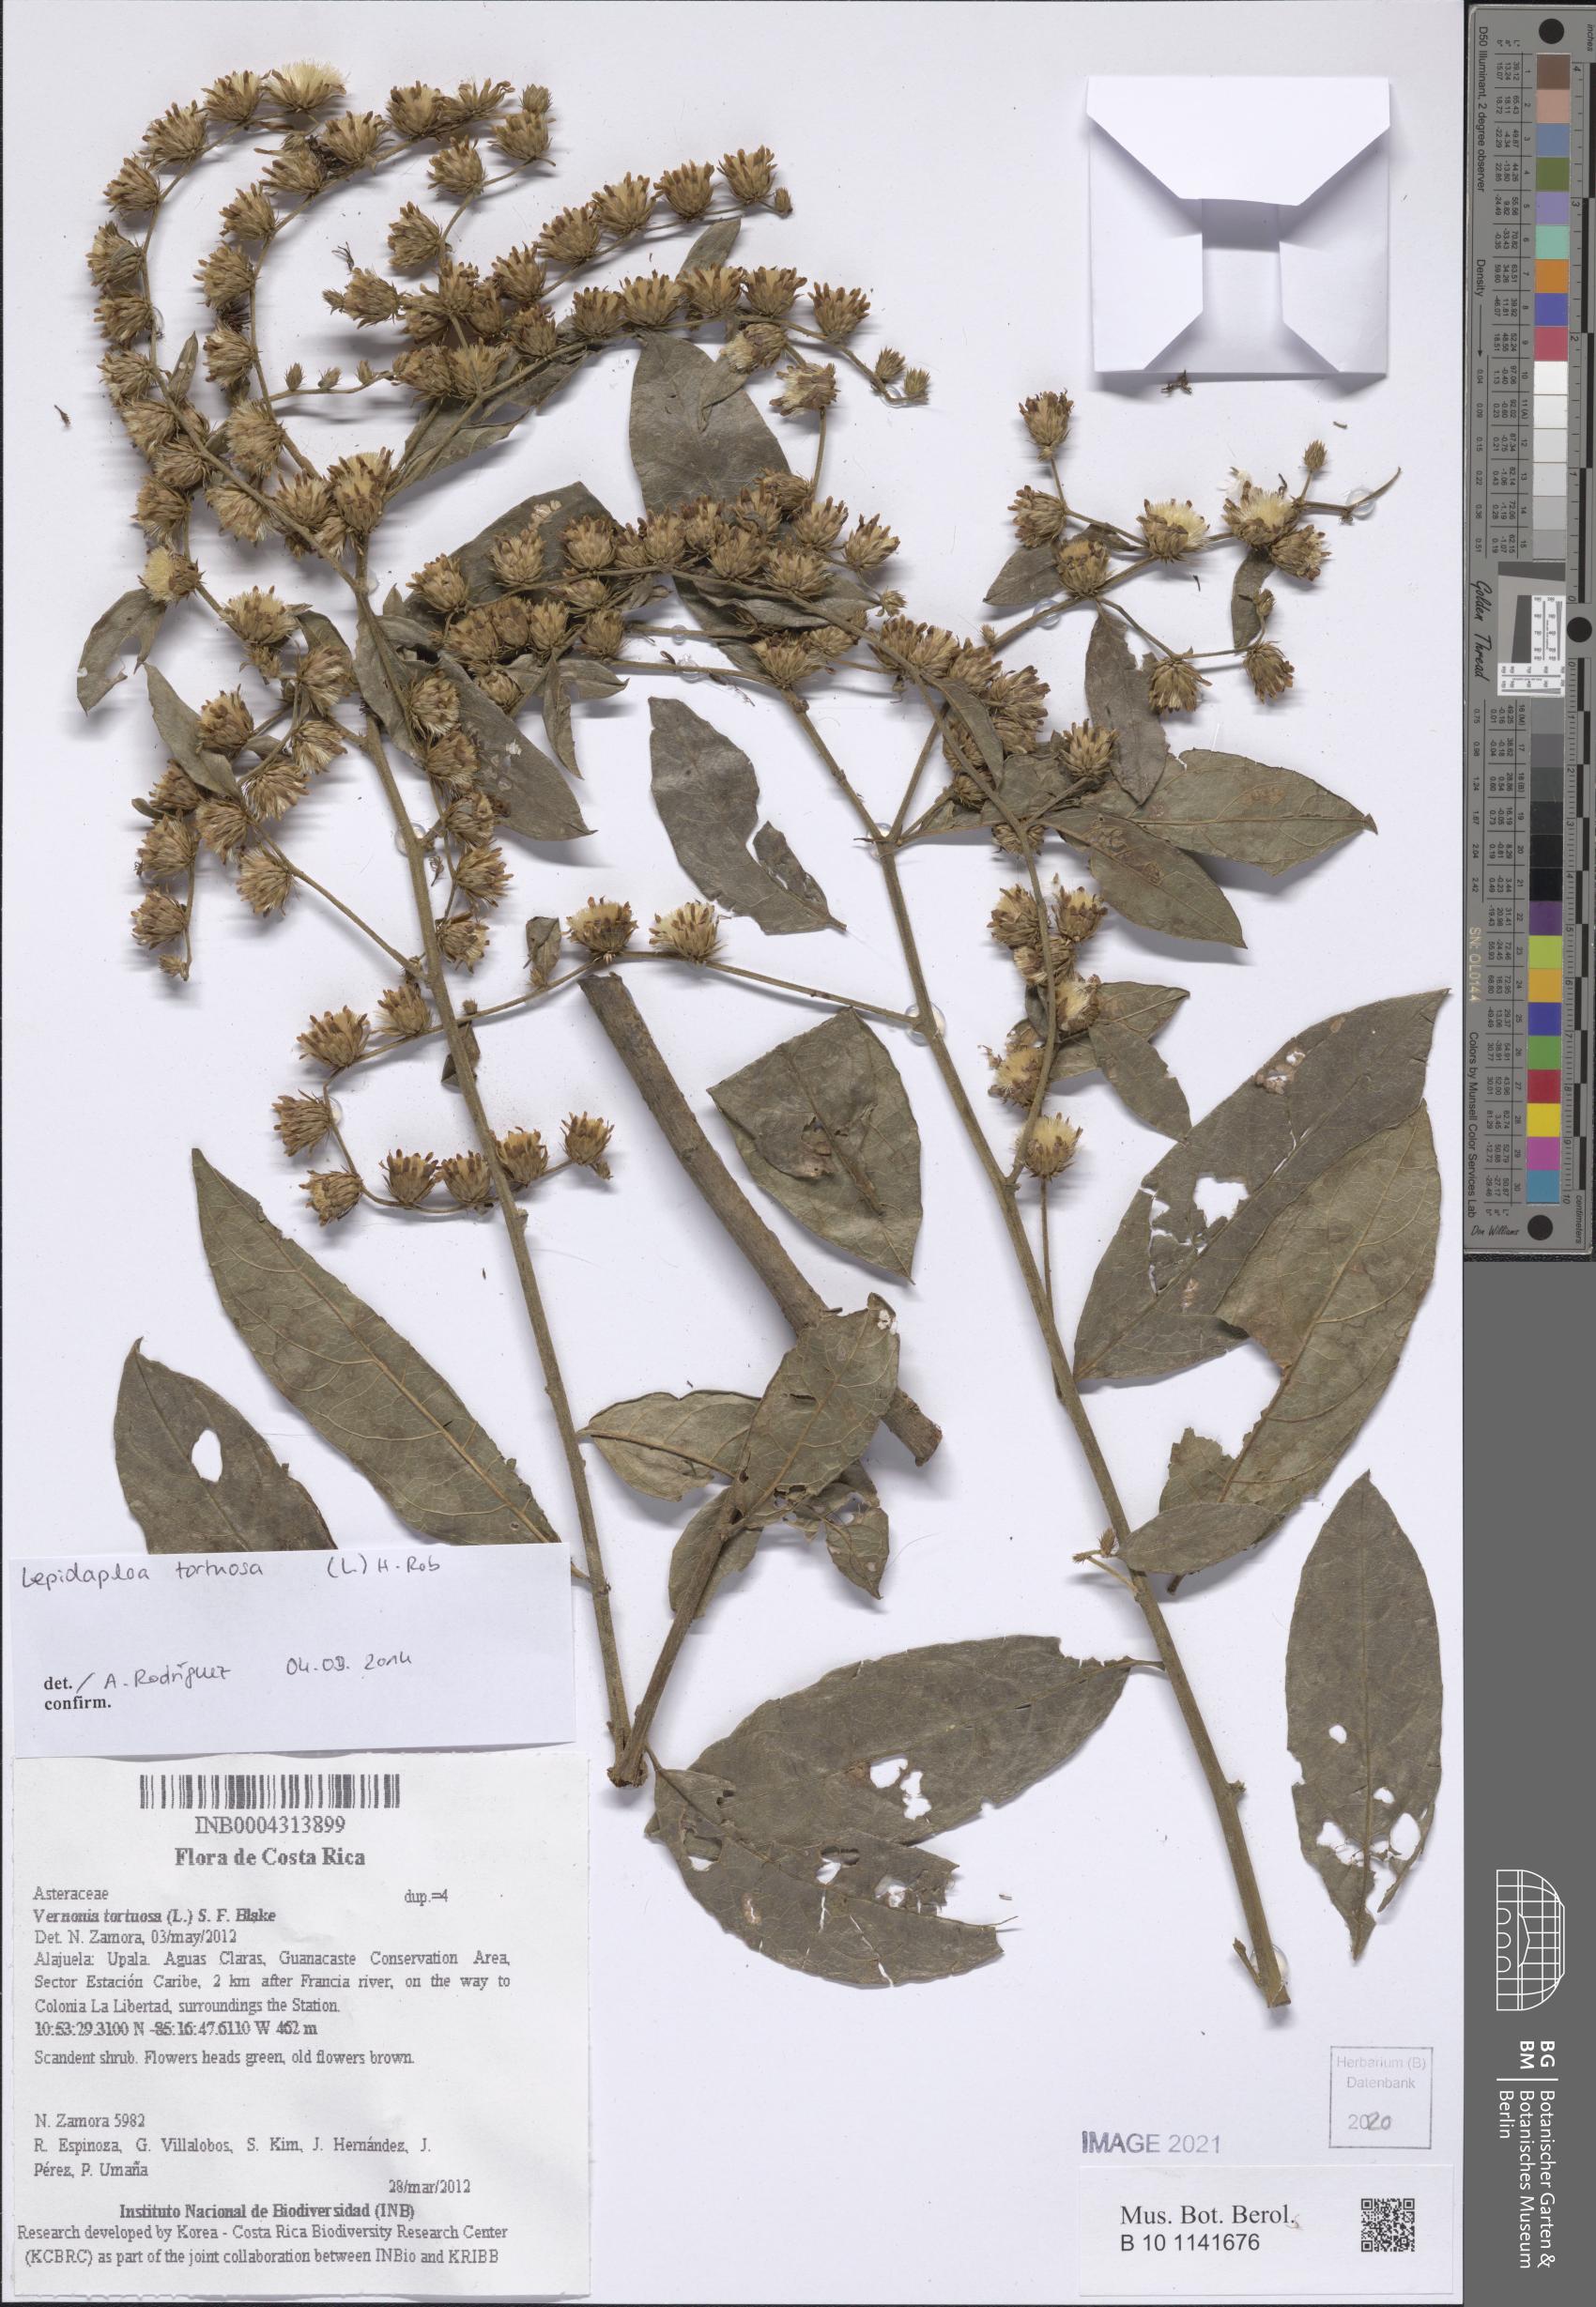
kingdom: Plantae
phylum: Tracheophyta
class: Magnoliopsida
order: Asterales
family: Asteraceae
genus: Lepidaploa
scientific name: Lepidaploa tortuosa
